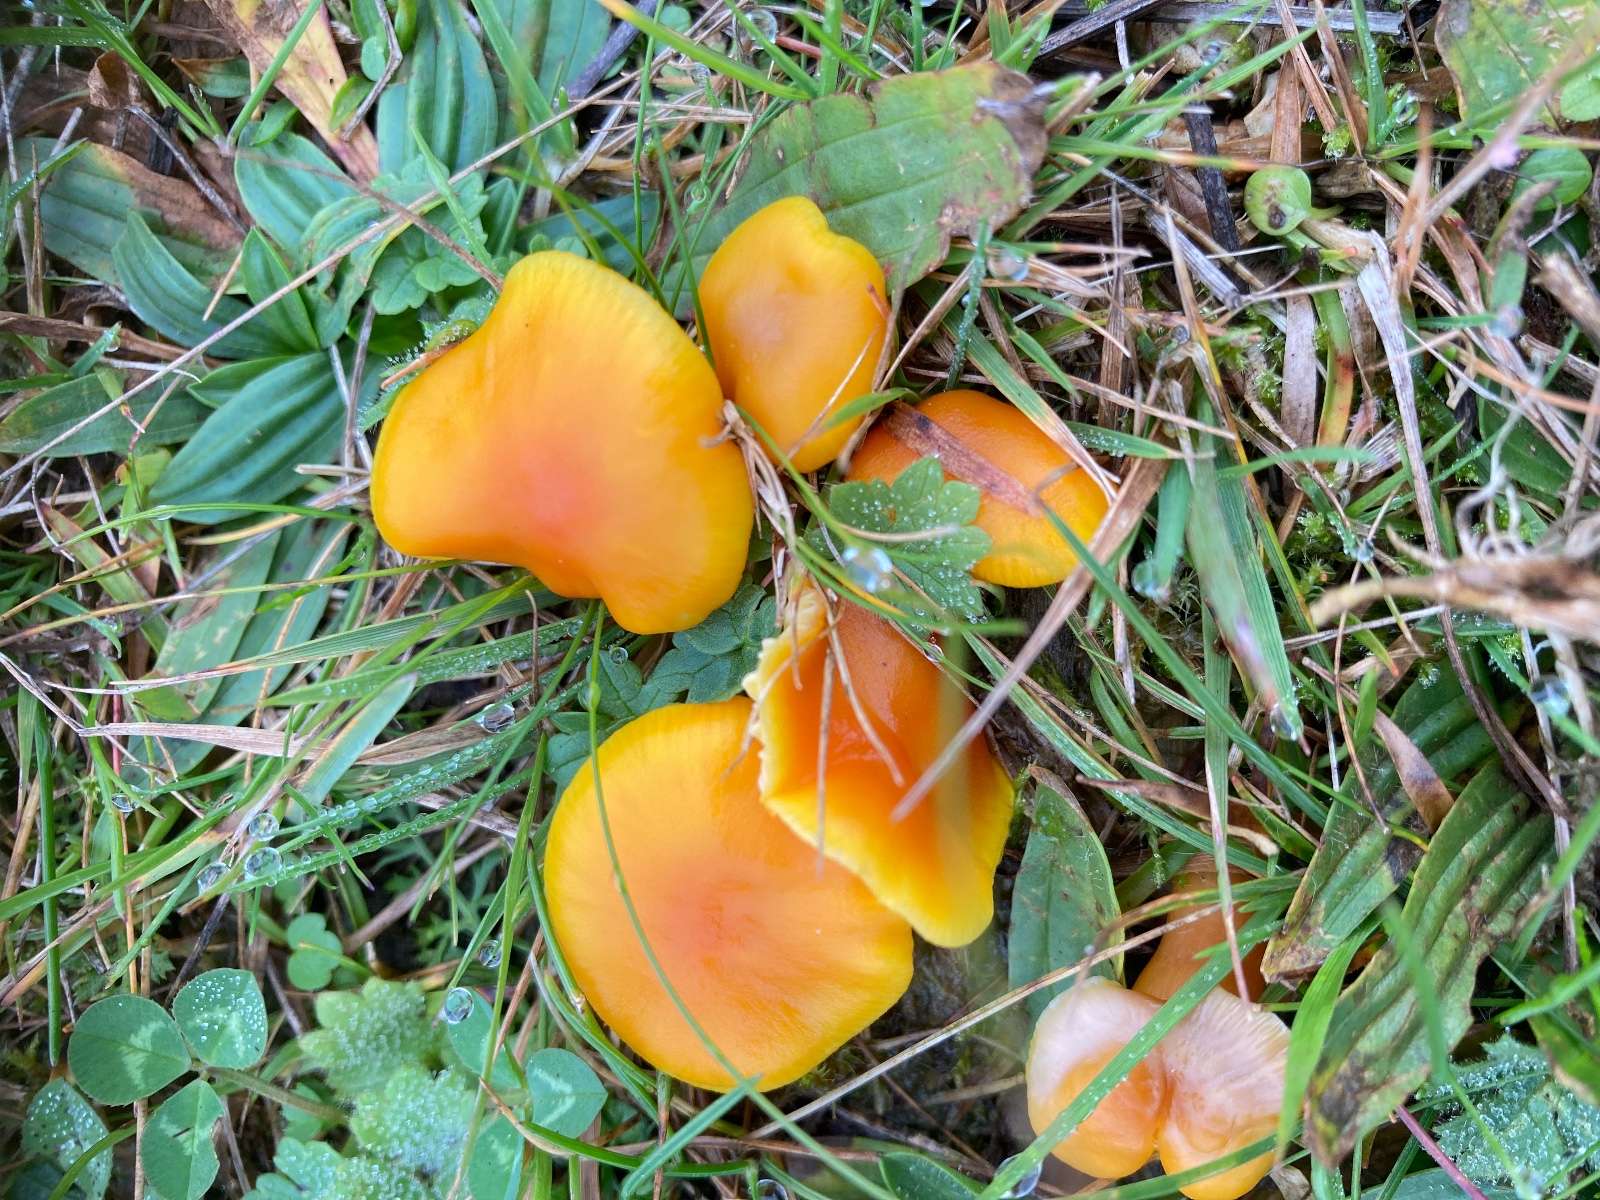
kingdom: Fungi
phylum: Basidiomycota
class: Agaricomycetes
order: Agaricales
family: Hygrophoraceae
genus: Hygrocybe
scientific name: Hygrocybe
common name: vokshat
